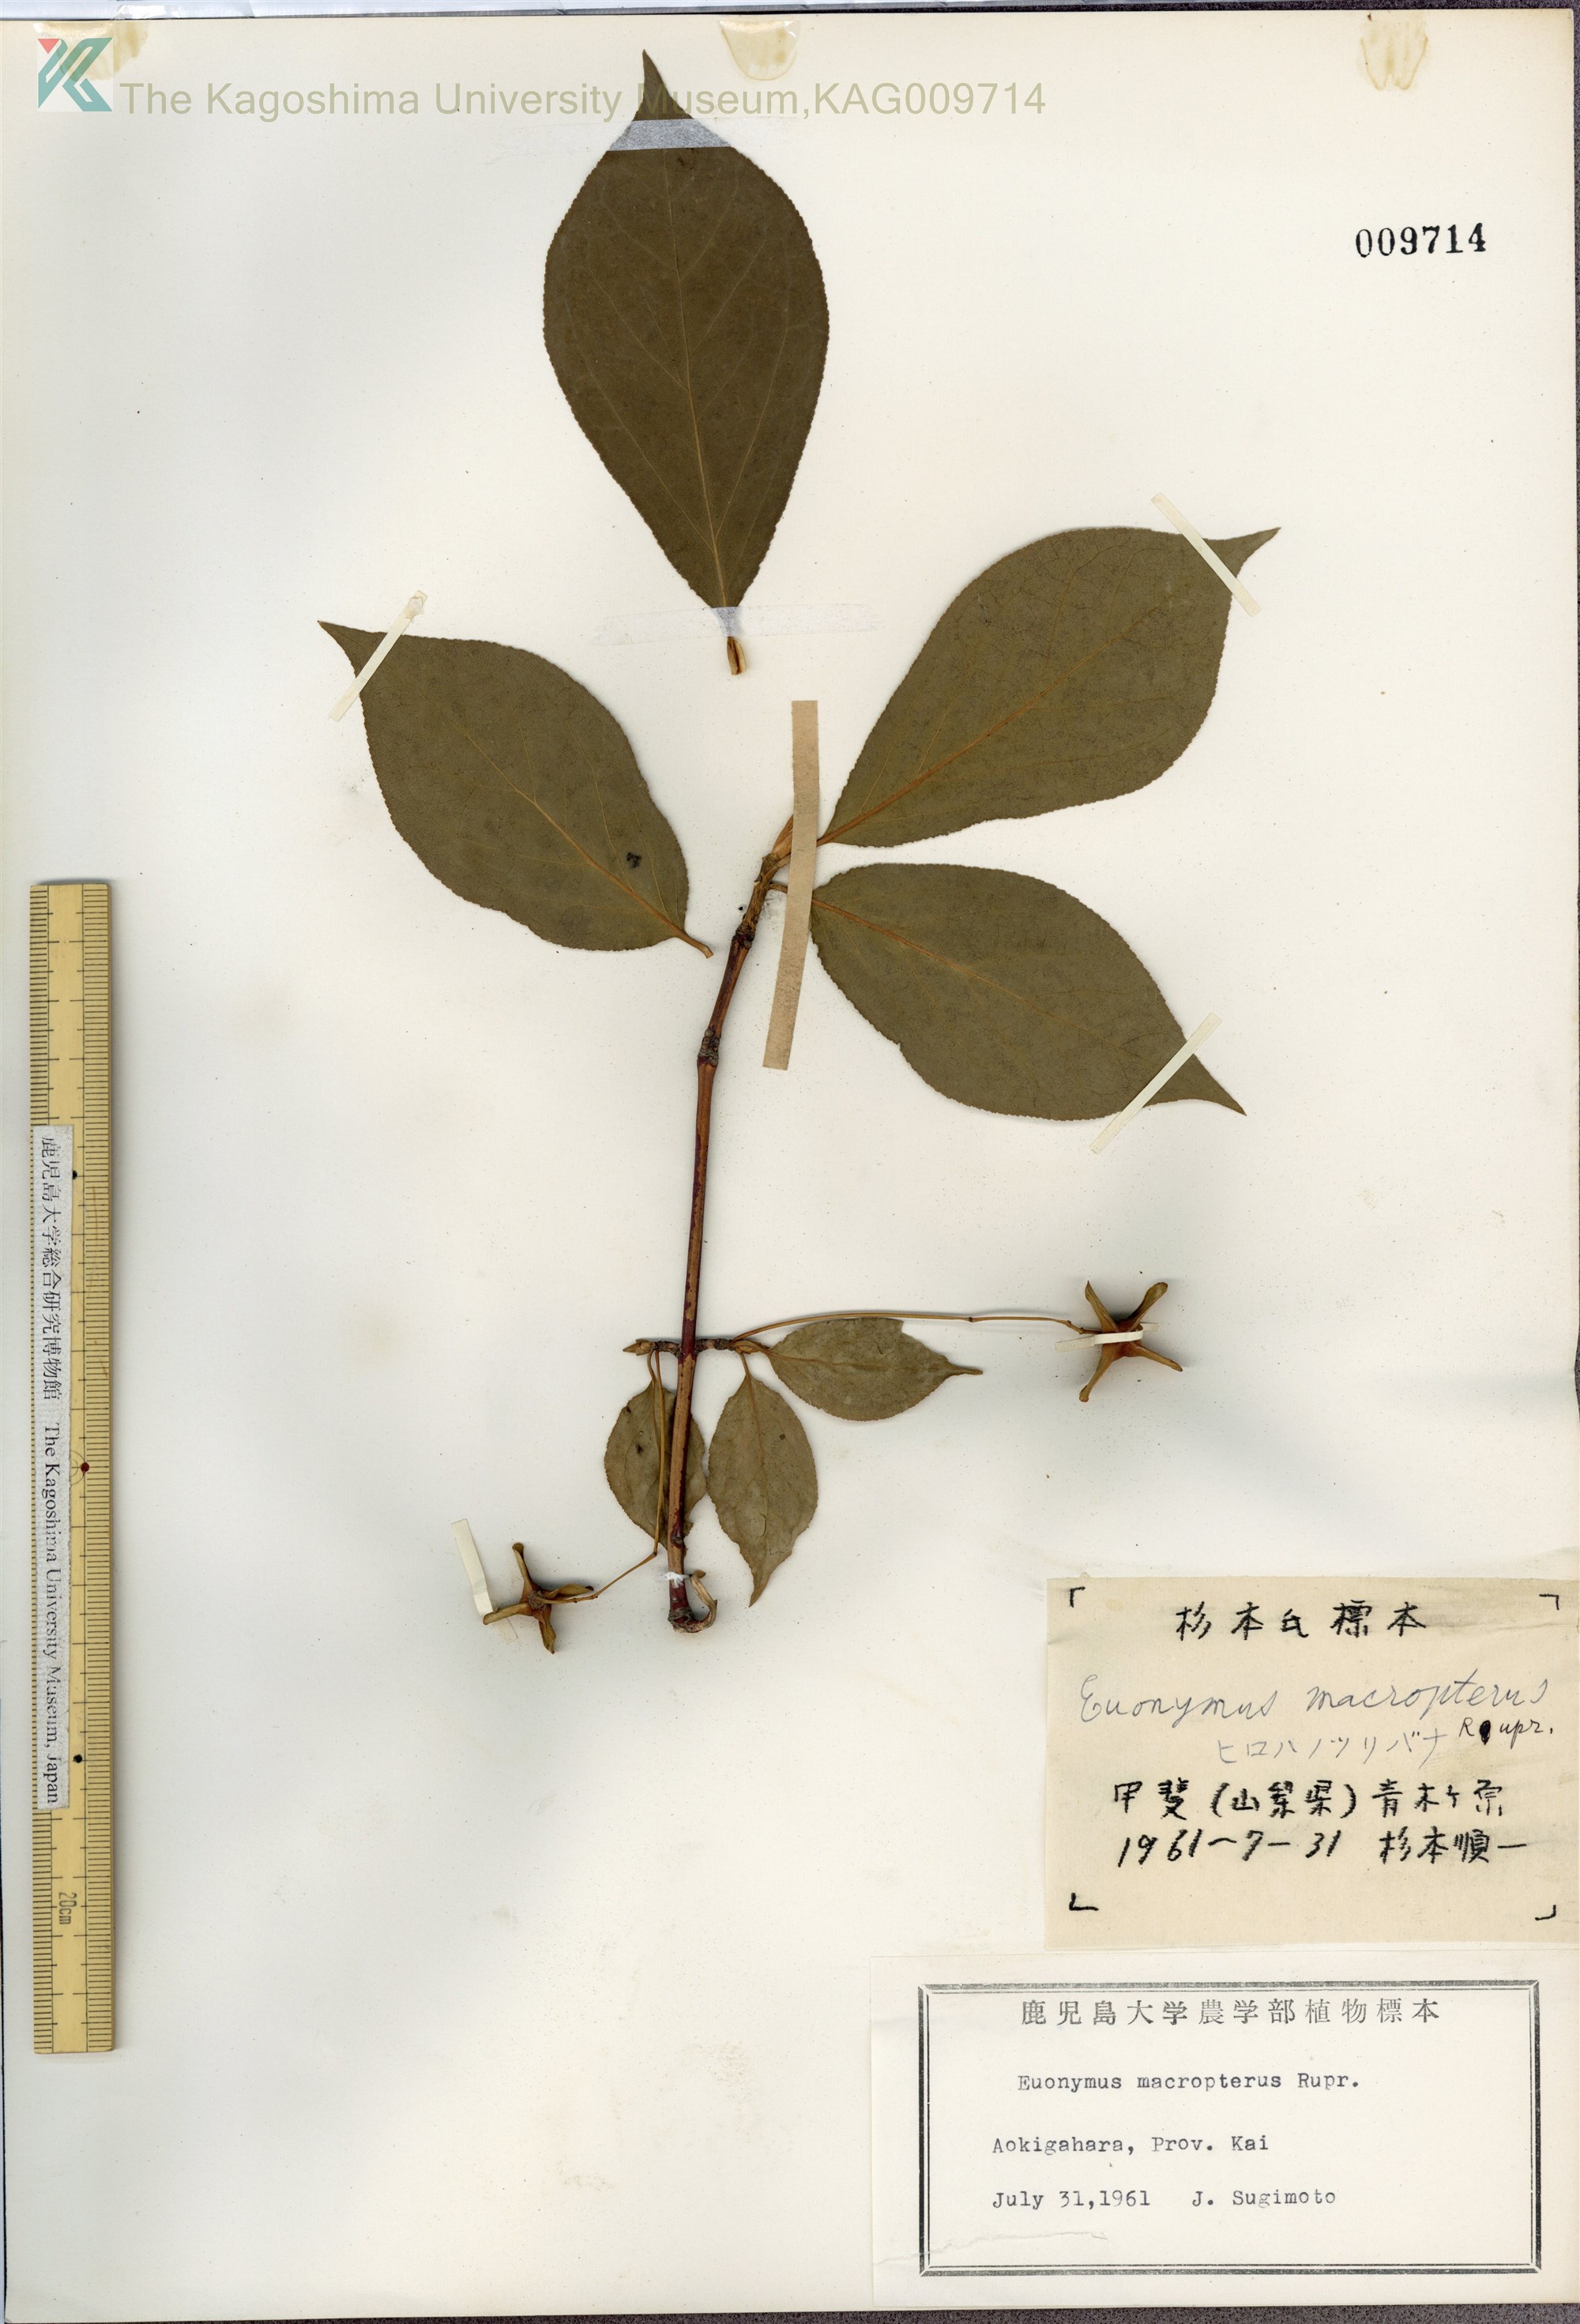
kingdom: Plantae
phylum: Tracheophyta
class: Magnoliopsida
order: Celastrales
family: Celastraceae
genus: Euonymus
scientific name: Euonymus macropterus
